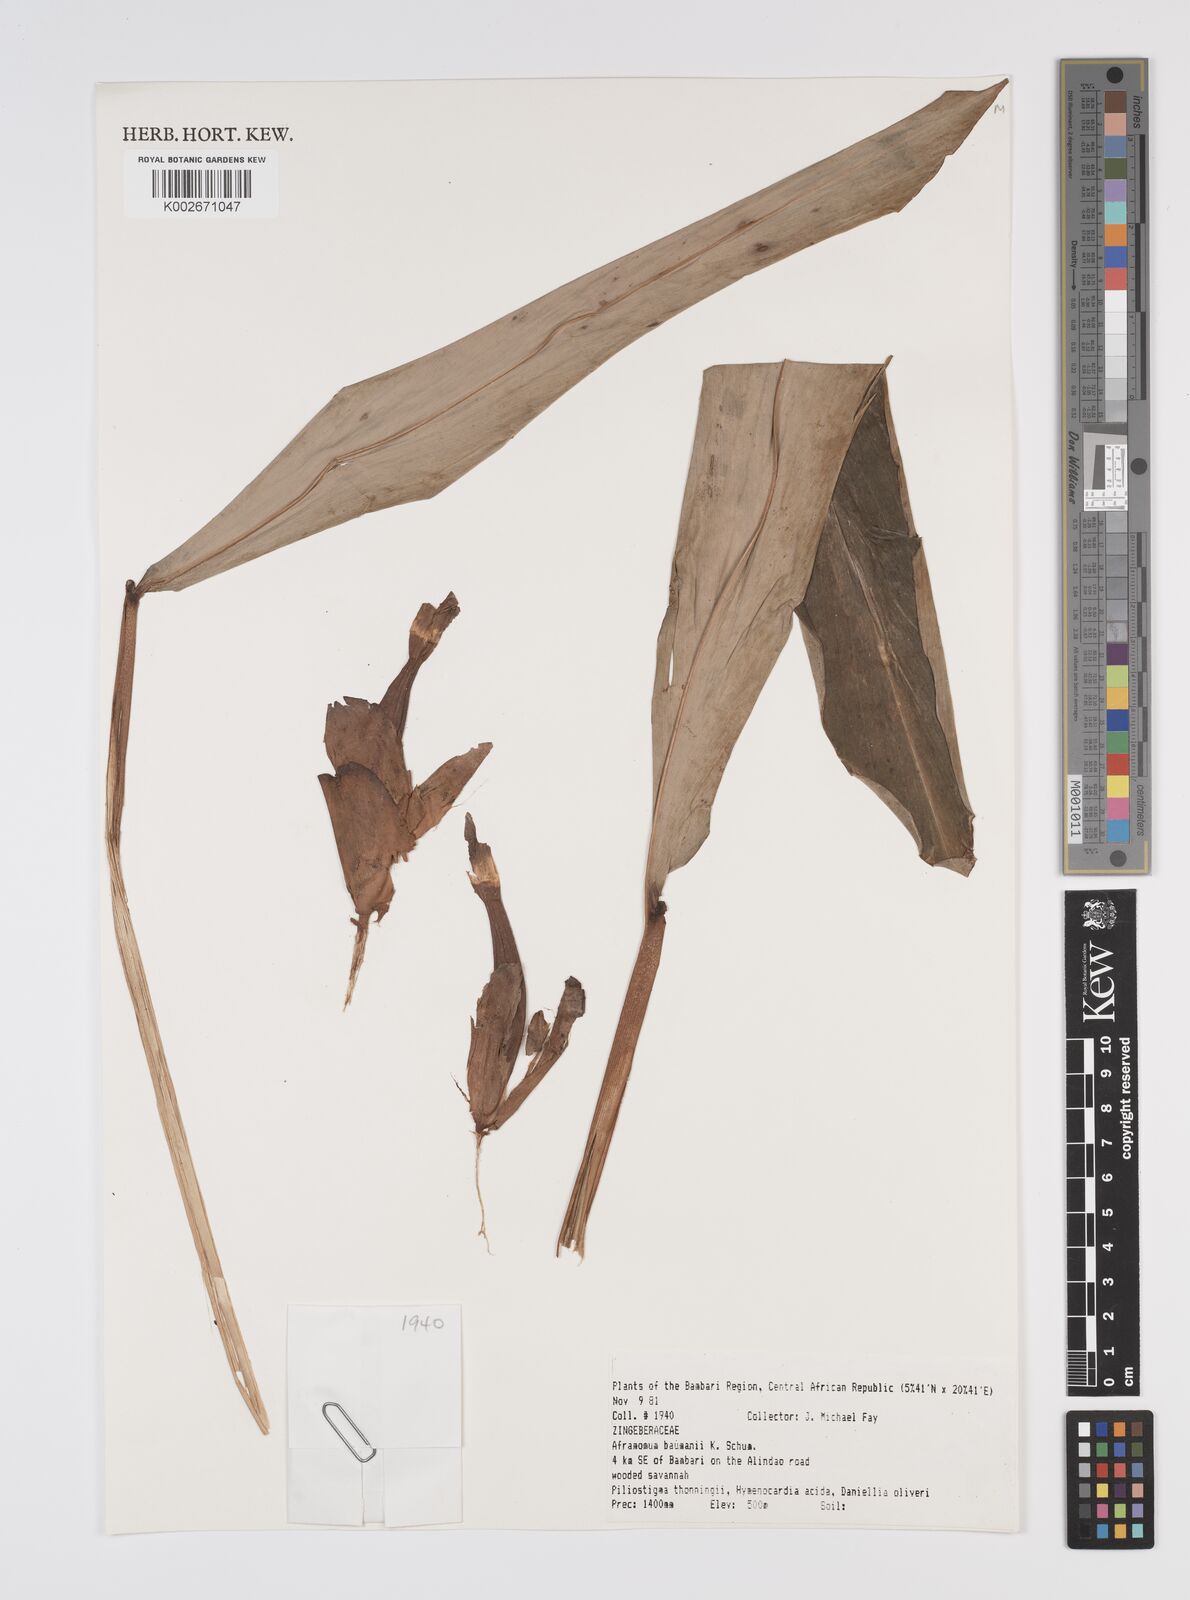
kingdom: Plantae
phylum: Tracheophyta
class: Liliopsida
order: Zingiberales
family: Zingiberaceae
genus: Aframomum
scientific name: Aframomum angustifolium
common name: Guinea grains
